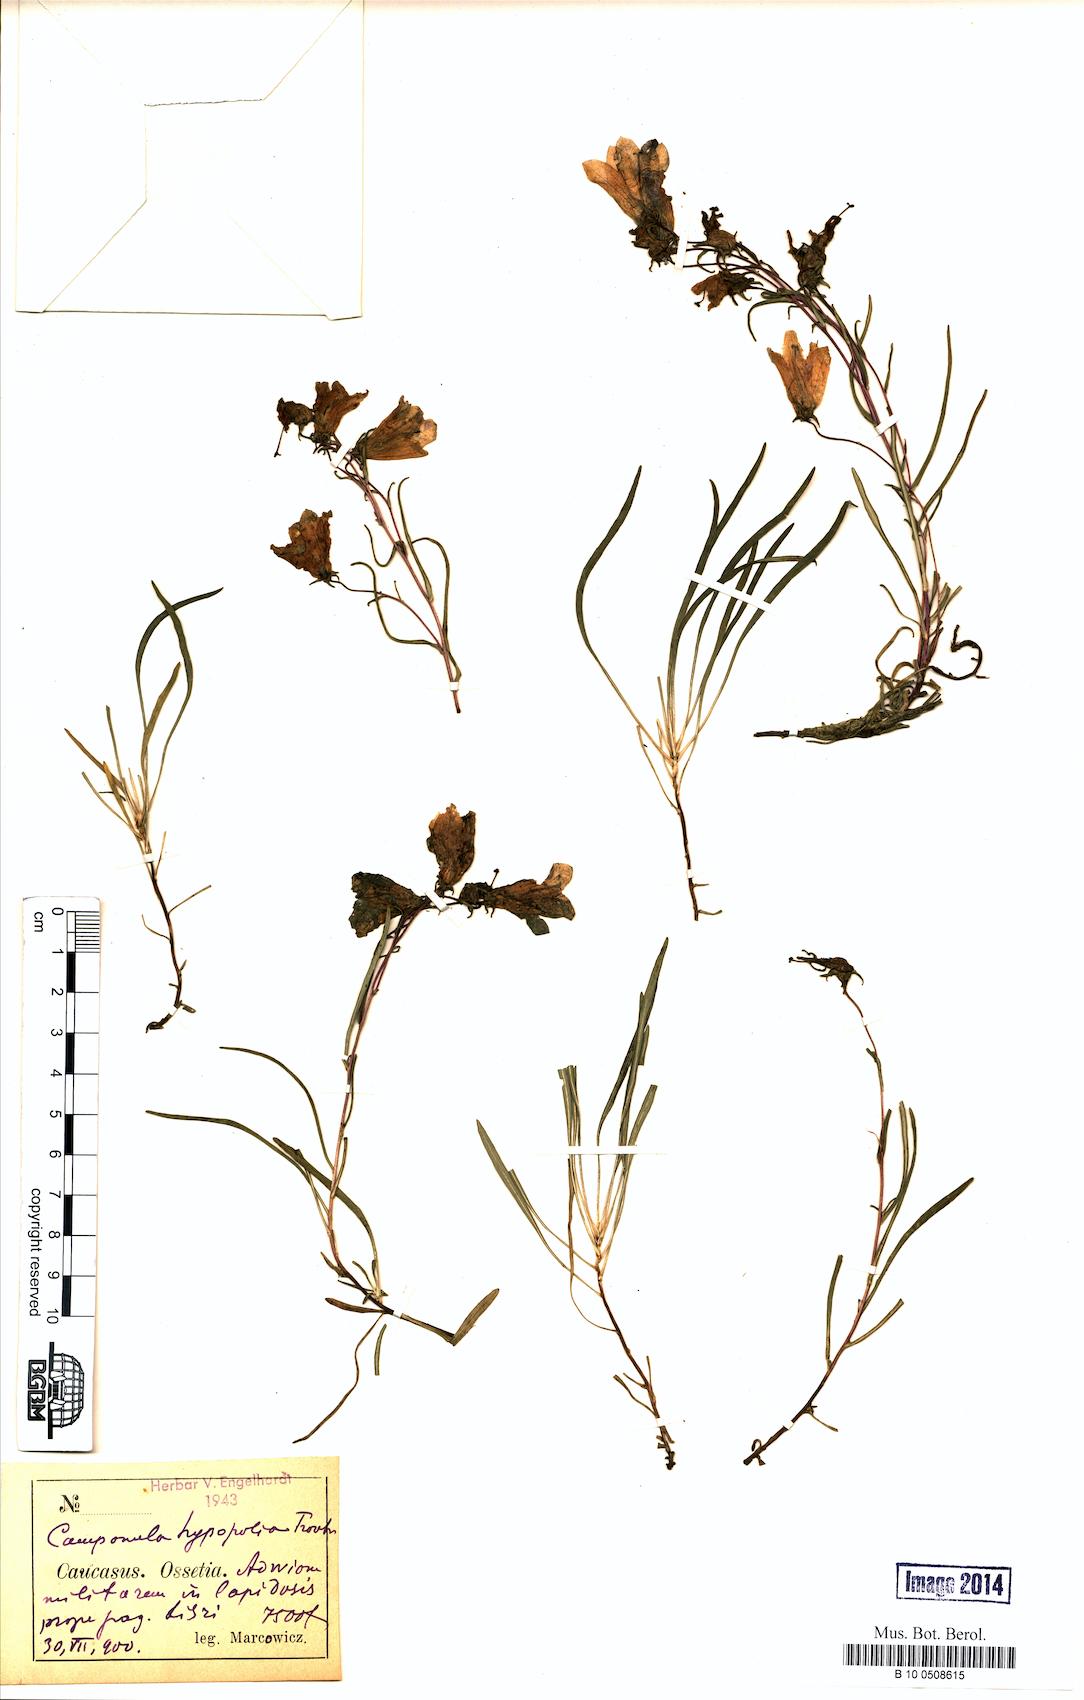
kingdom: Plantae
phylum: Tracheophyta
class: Magnoliopsida
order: Asterales
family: Campanulaceae
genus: Campanula
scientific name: Campanula hypopolia
